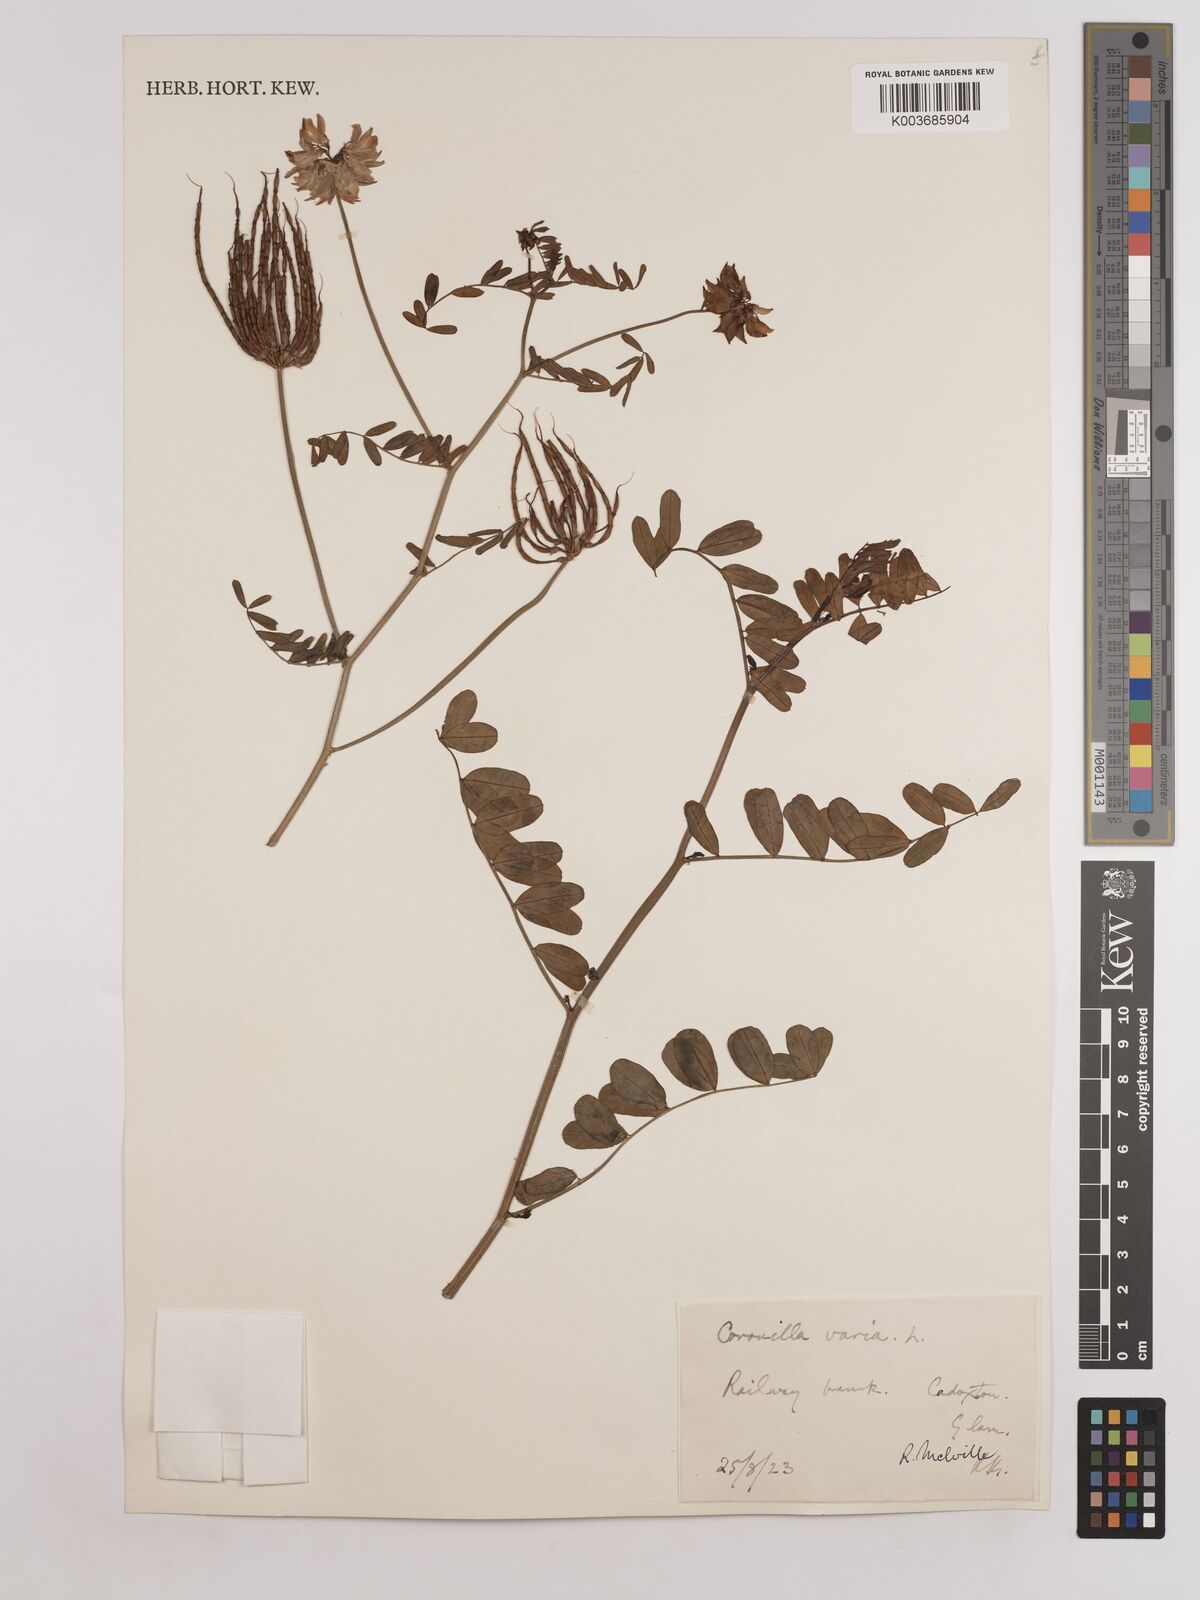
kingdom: Plantae
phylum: Tracheophyta
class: Magnoliopsida
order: Fabales
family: Fabaceae
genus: Coronilla
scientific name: Coronilla varia
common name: Crownvetch
